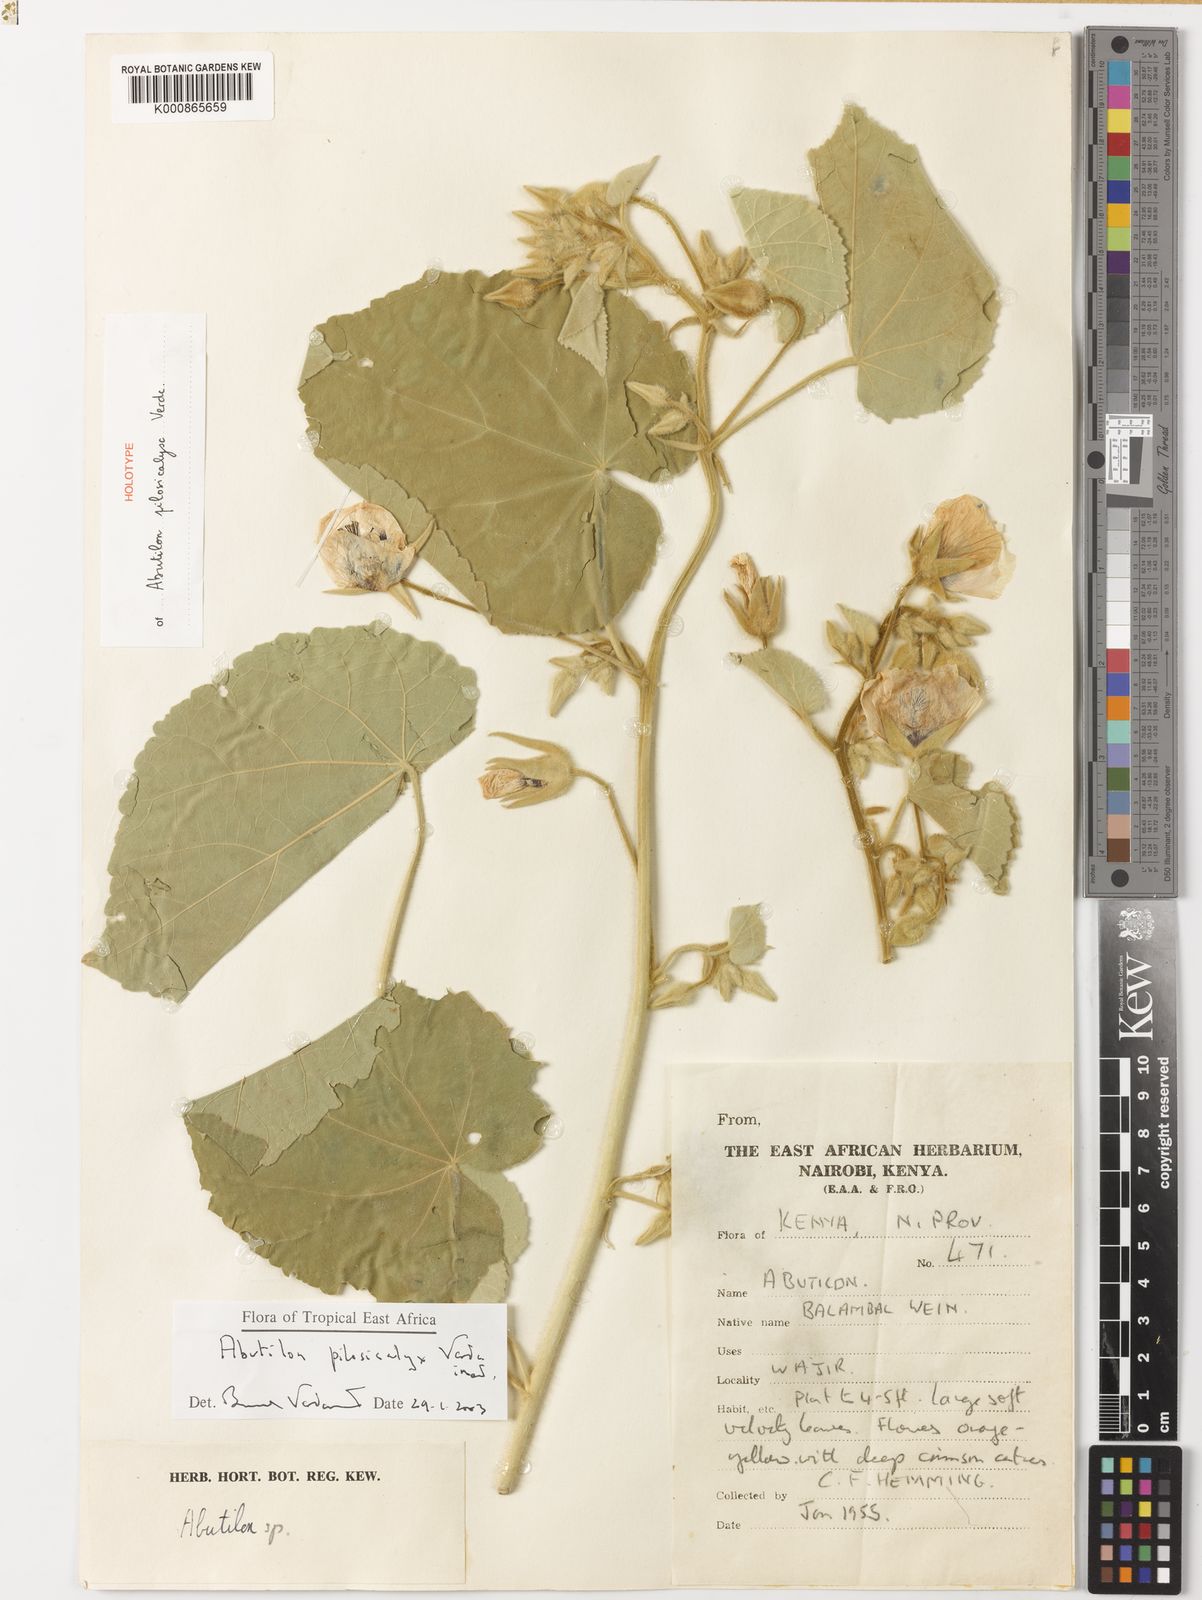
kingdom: Plantae
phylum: Tracheophyta
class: Magnoliopsida
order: Malvales
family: Malvaceae
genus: Abutilon
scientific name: Abutilon pilosicalyx
